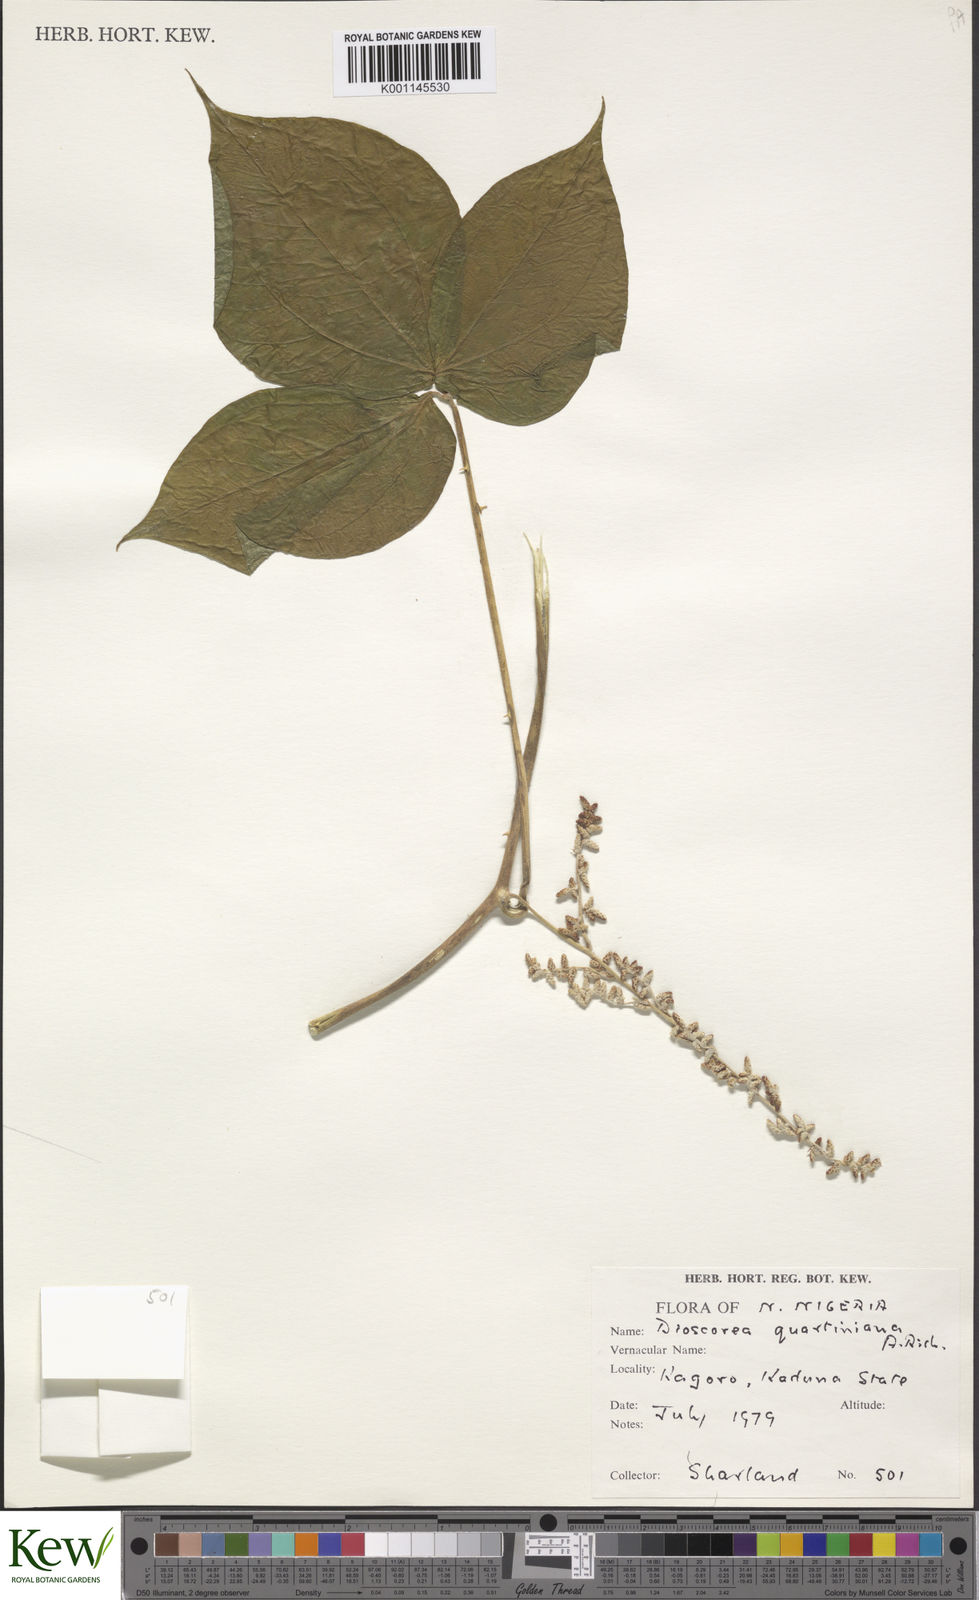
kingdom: Plantae
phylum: Tracheophyta
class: Liliopsida
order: Dioscoreales
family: Dioscoreaceae
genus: Dioscorea
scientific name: Dioscorea quartiniana
